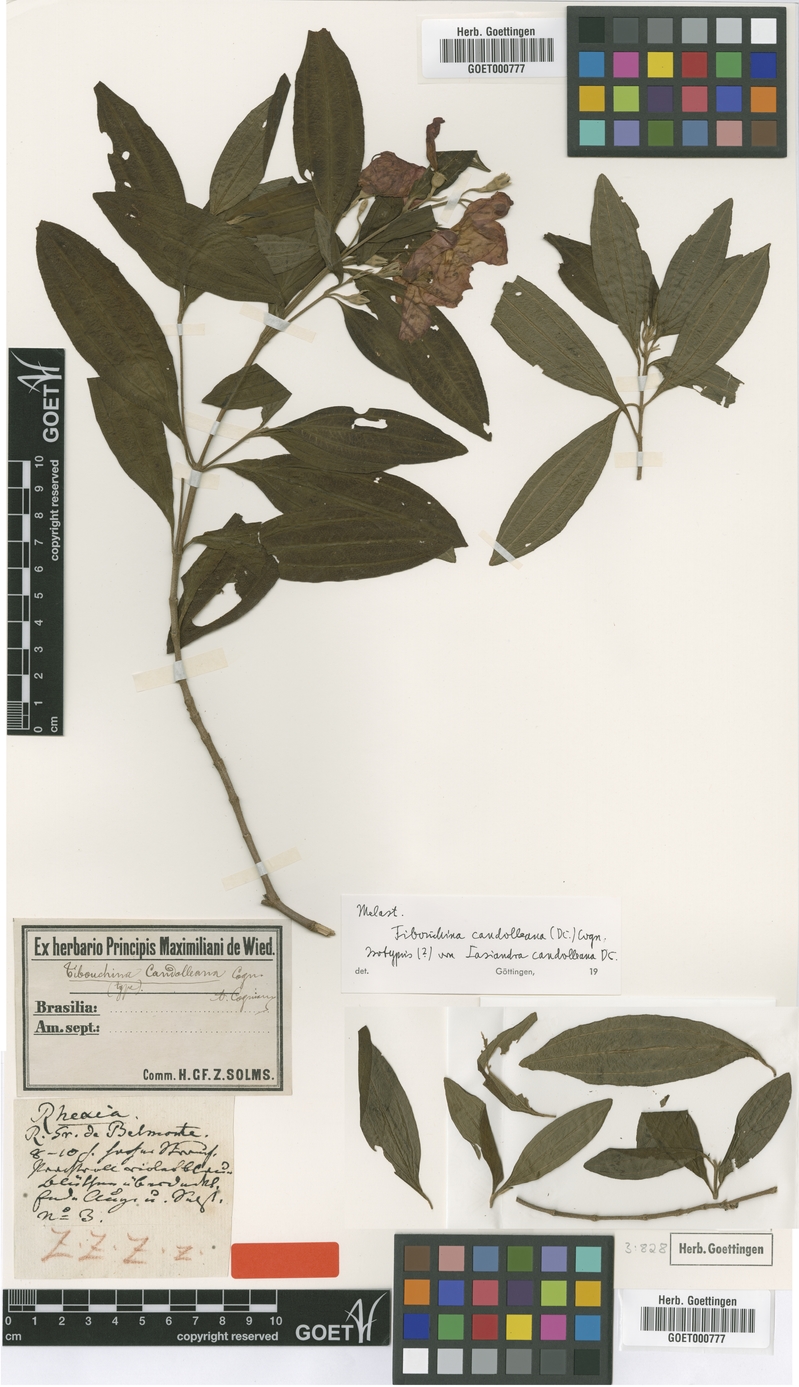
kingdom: Plantae
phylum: Tracheophyta
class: Magnoliopsida
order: Myrtales
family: Melastomataceae
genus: Pleroma
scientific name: Pleroma candolleanum
